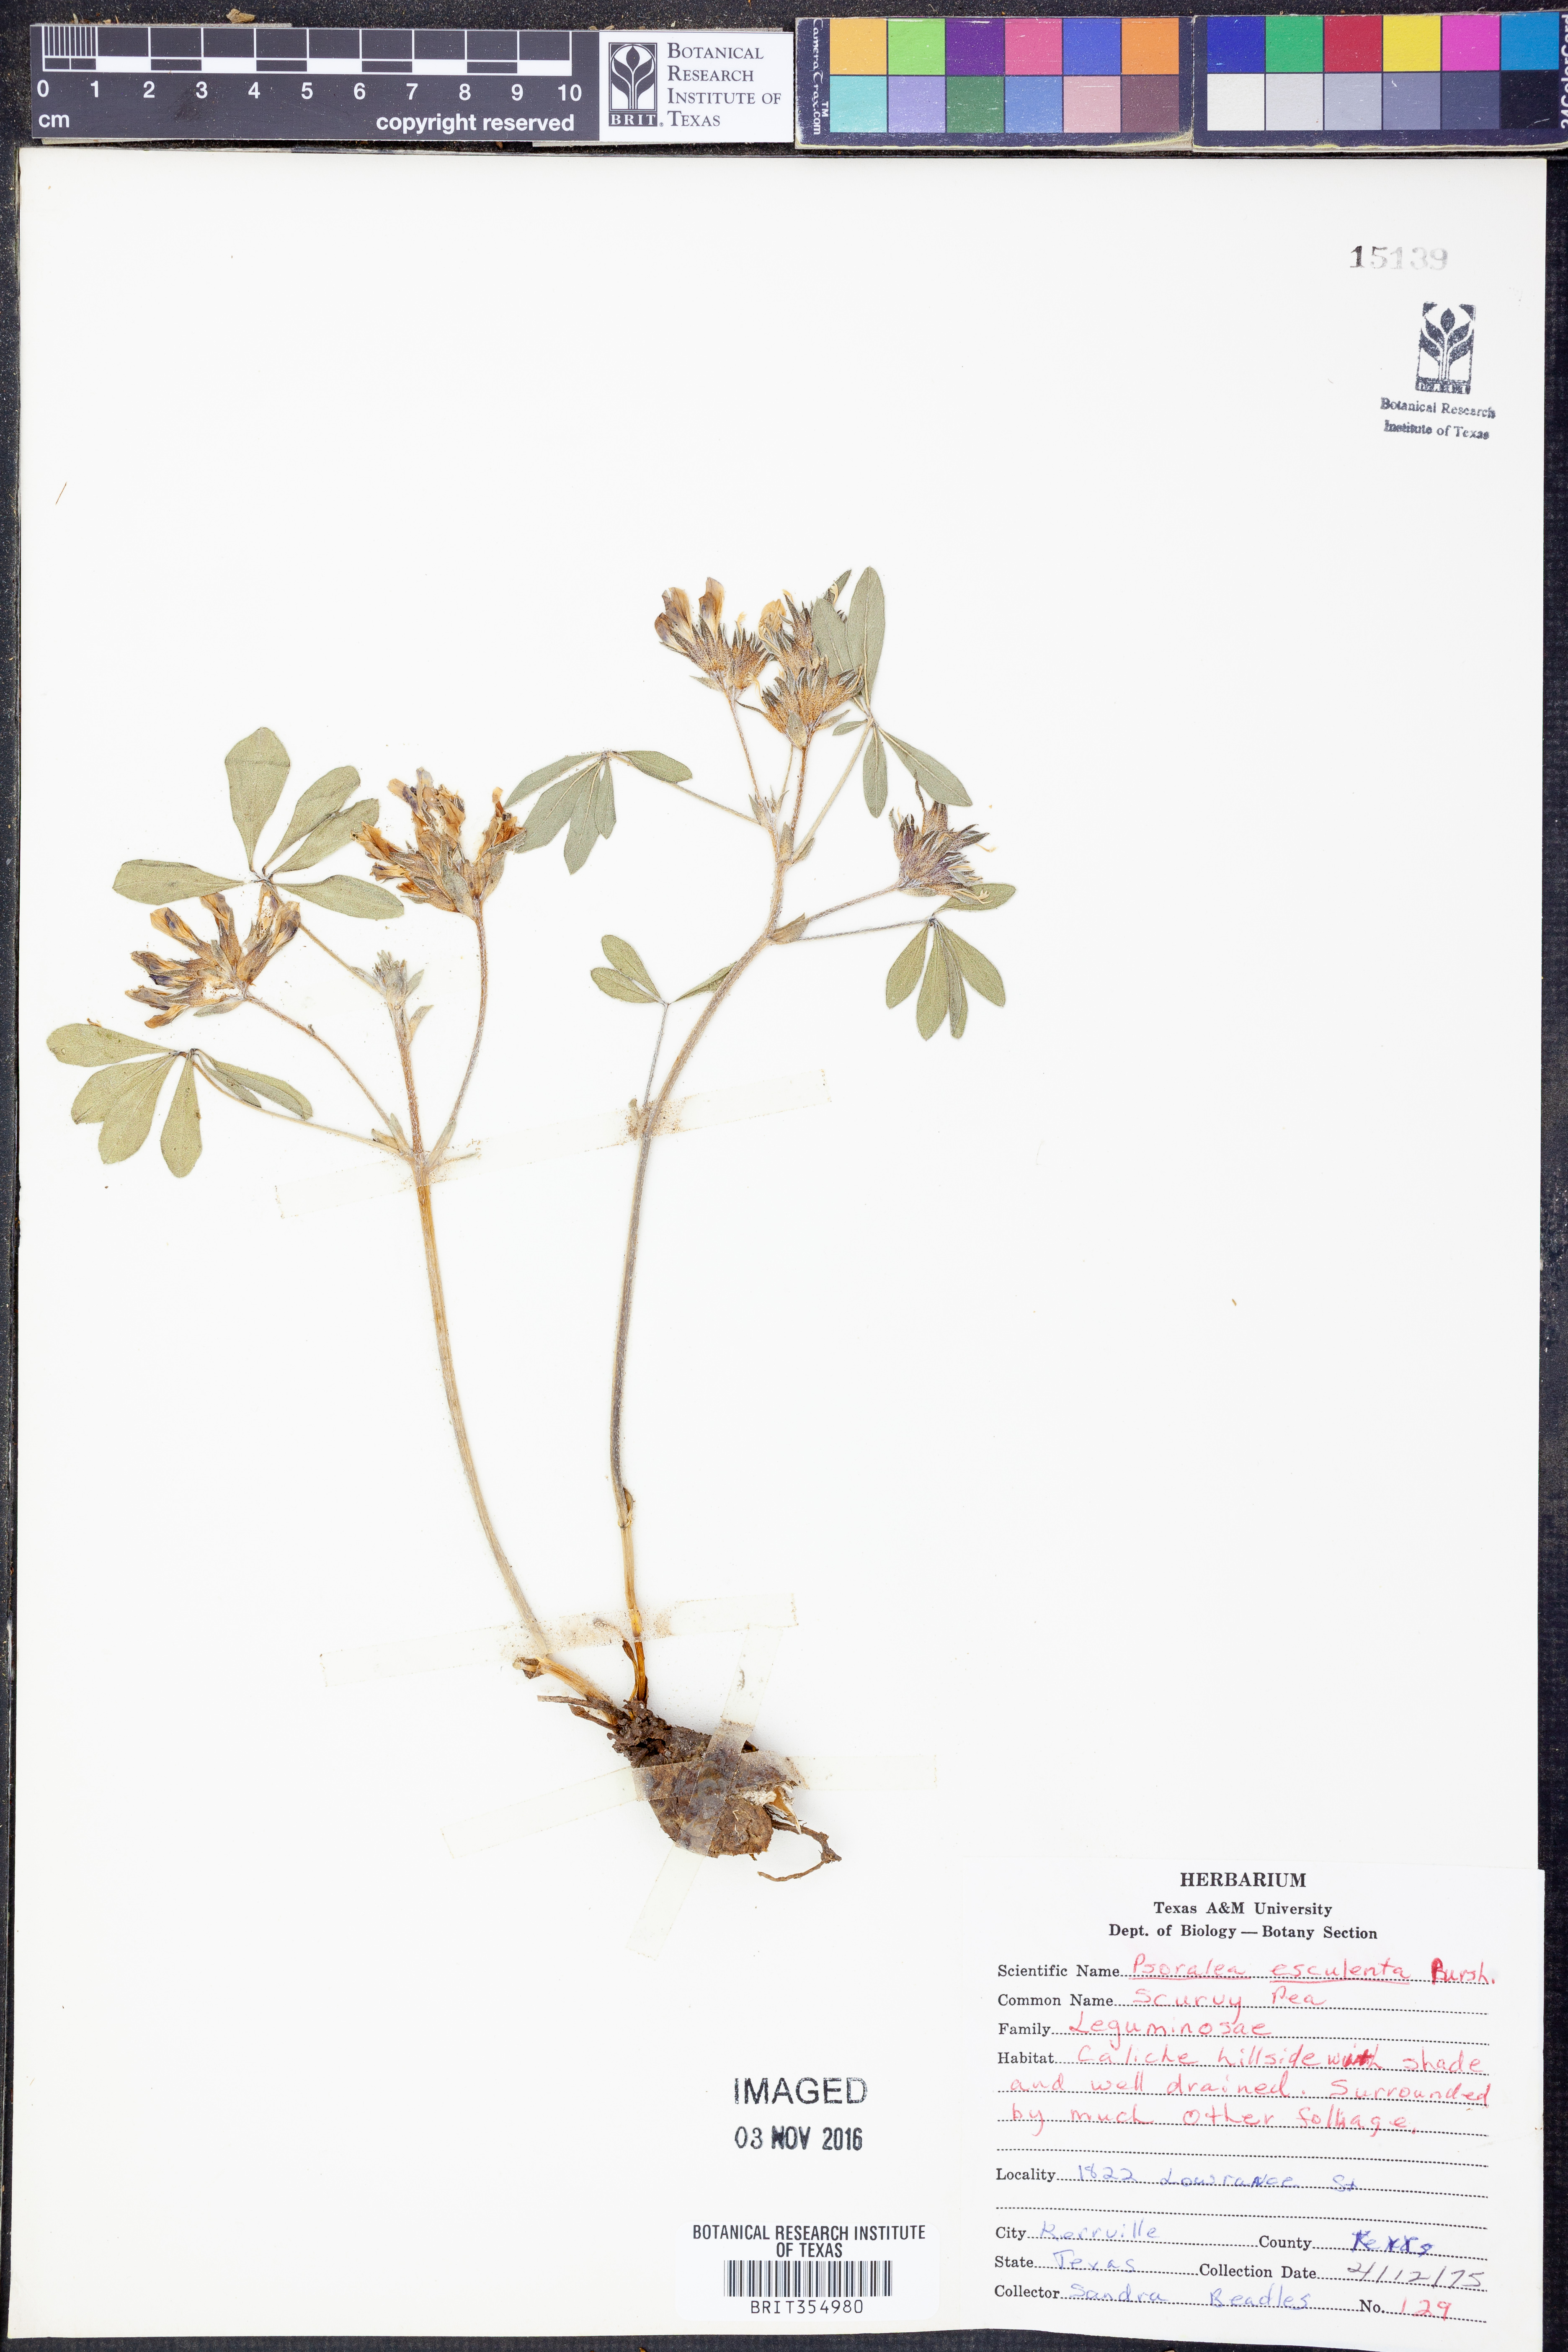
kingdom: Plantae
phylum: Tracheophyta
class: Magnoliopsida
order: Fabales
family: Fabaceae
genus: Pediomelum
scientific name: Pediomelum humile
